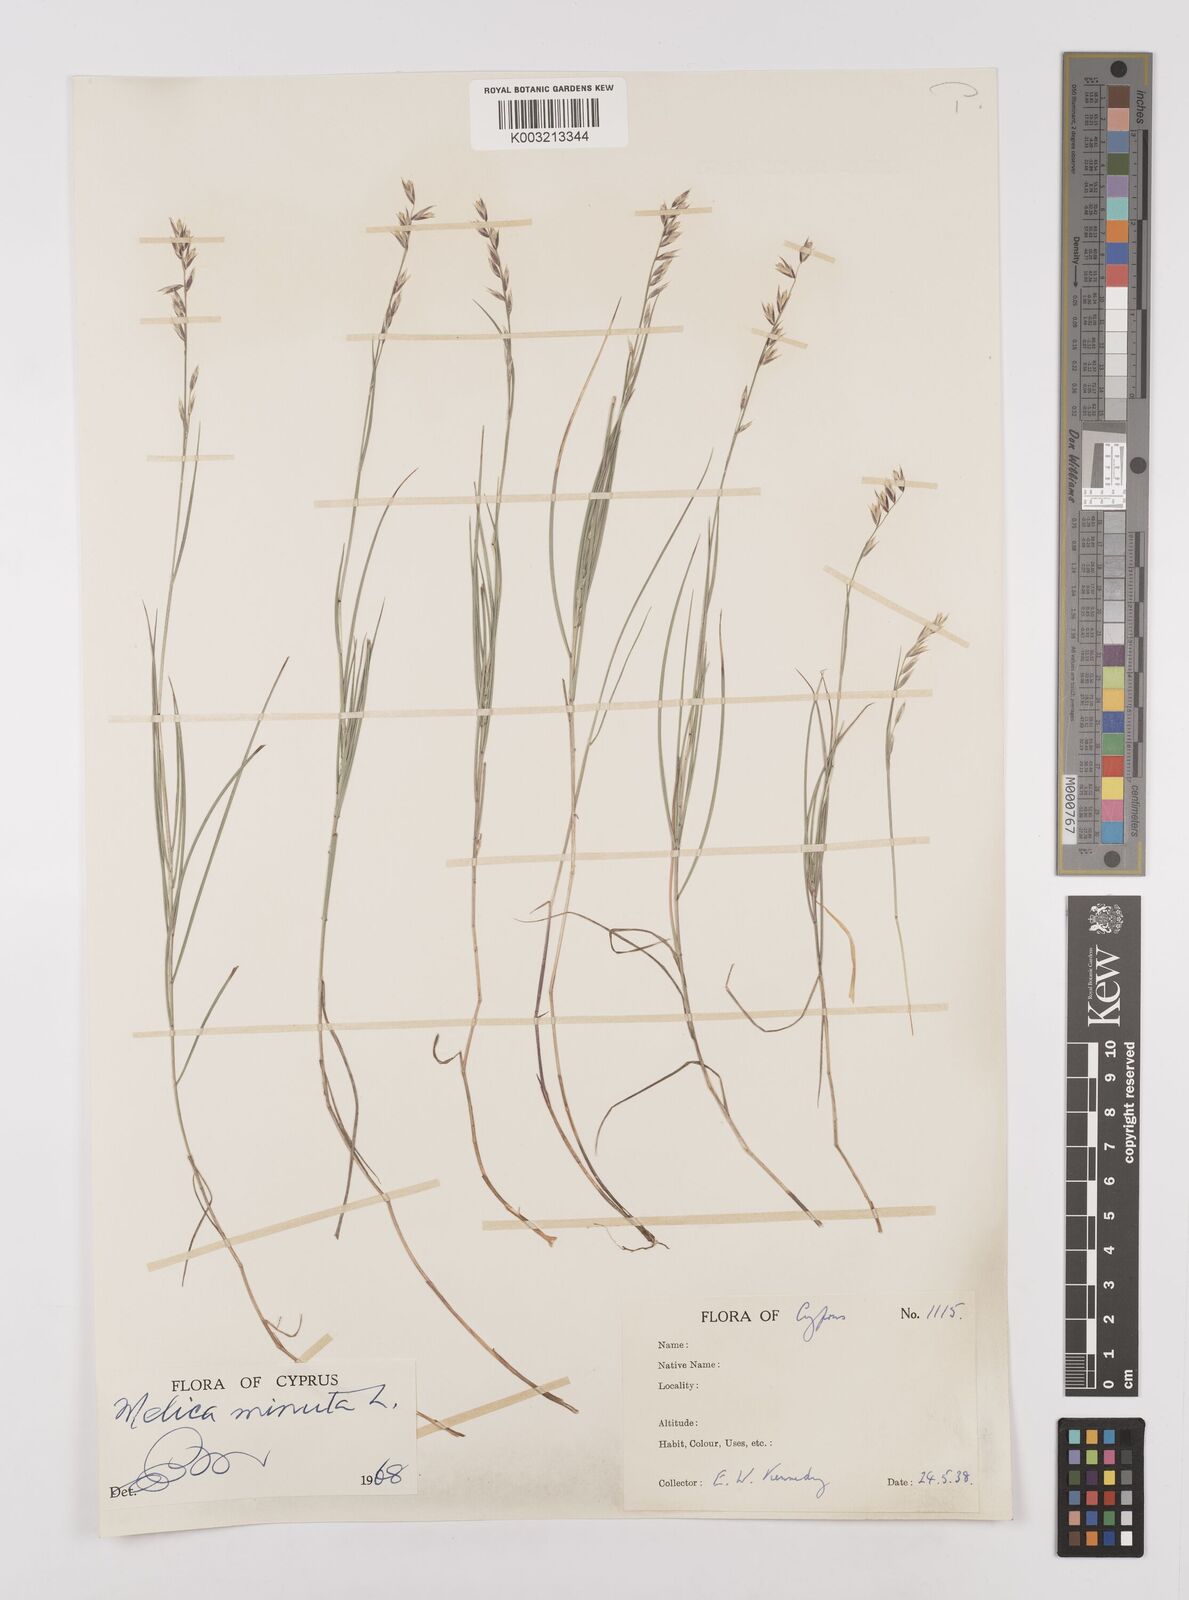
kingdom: Plantae
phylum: Tracheophyta
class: Liliopsida
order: Poales
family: Poaceae
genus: Melica
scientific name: Melica minuta
